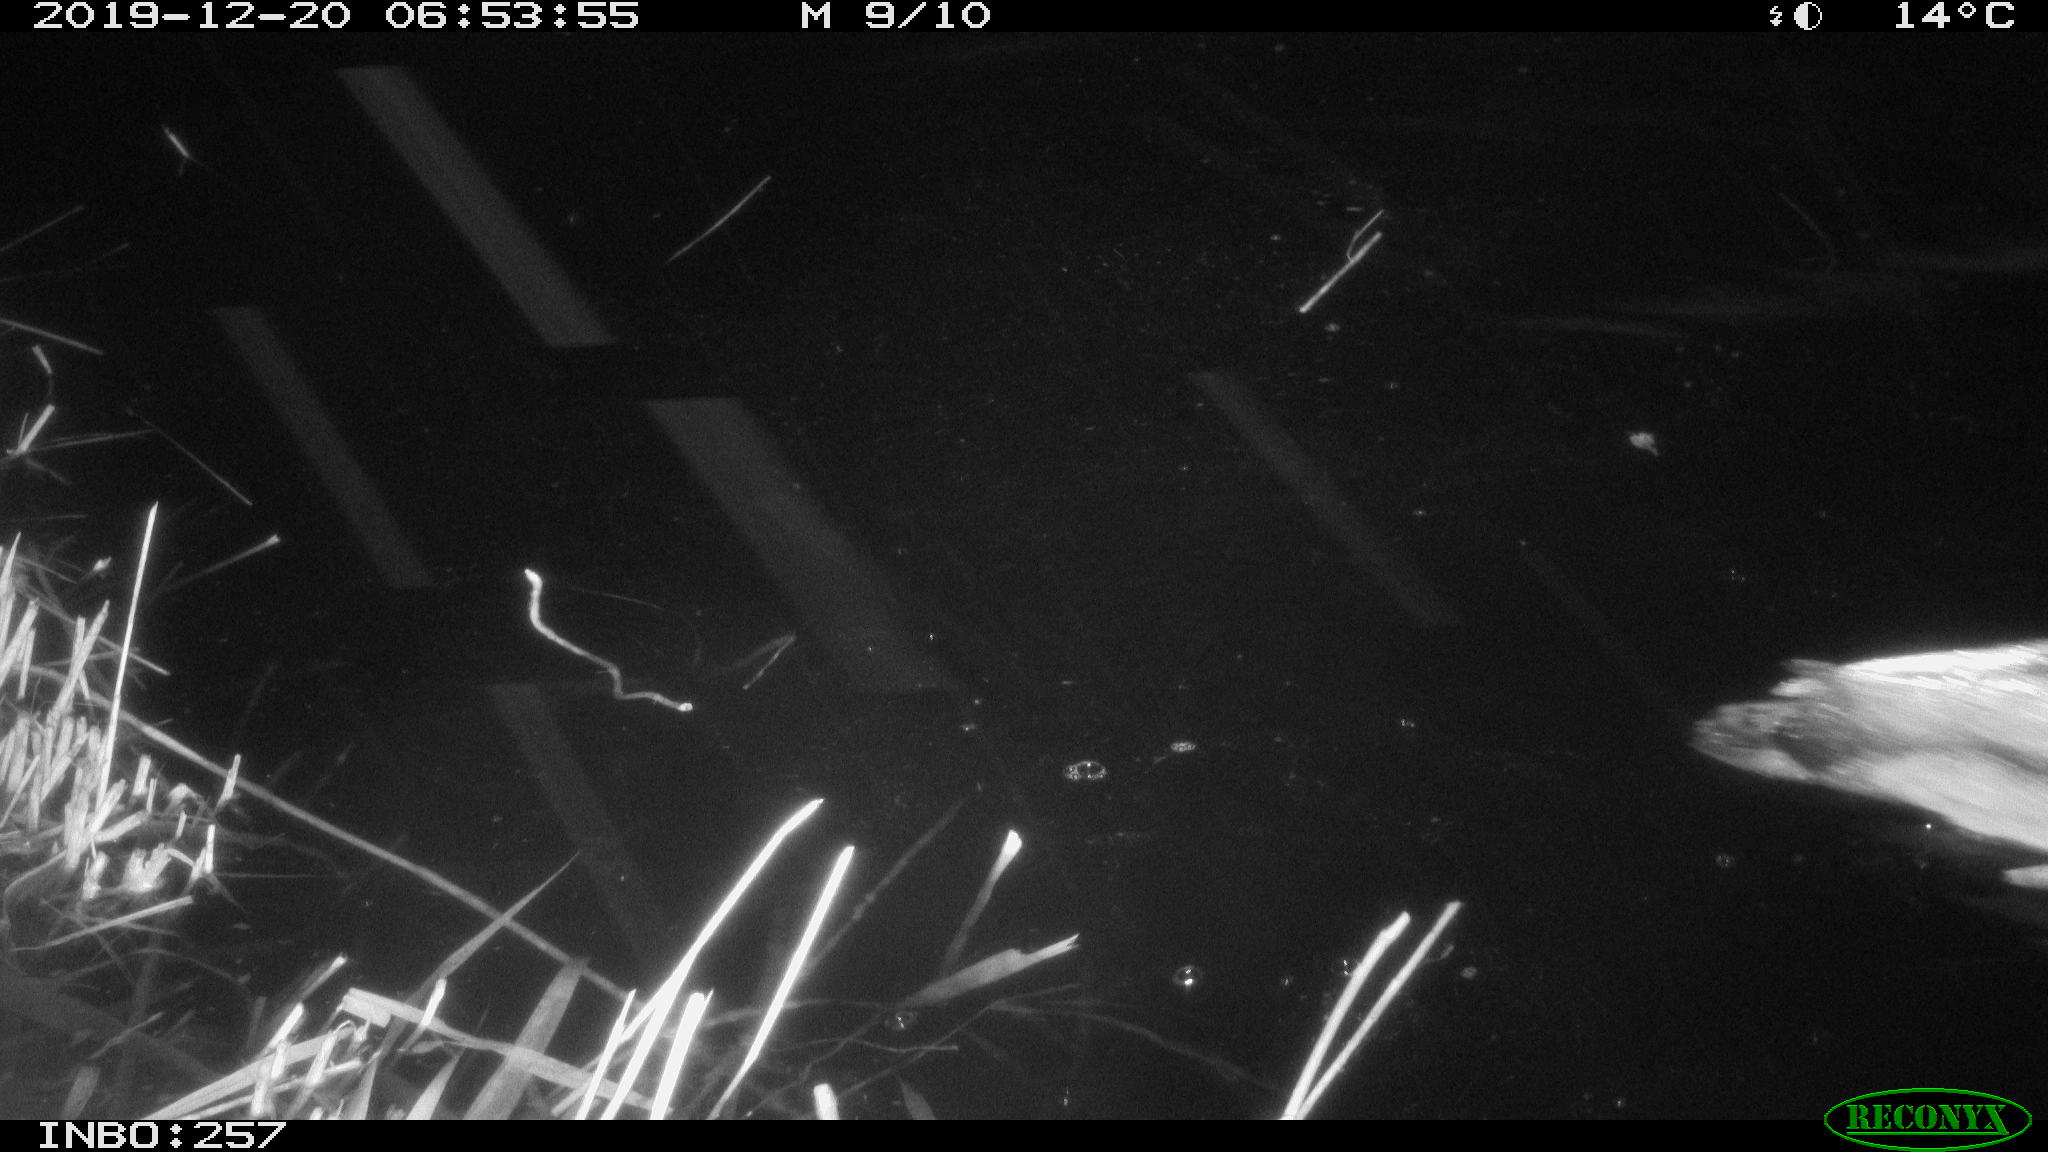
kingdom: Animalia
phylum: Chordata
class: Aves
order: Anseriformes
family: Anatidae
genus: Anas
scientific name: Anas platyrhynchos
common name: Mallard
